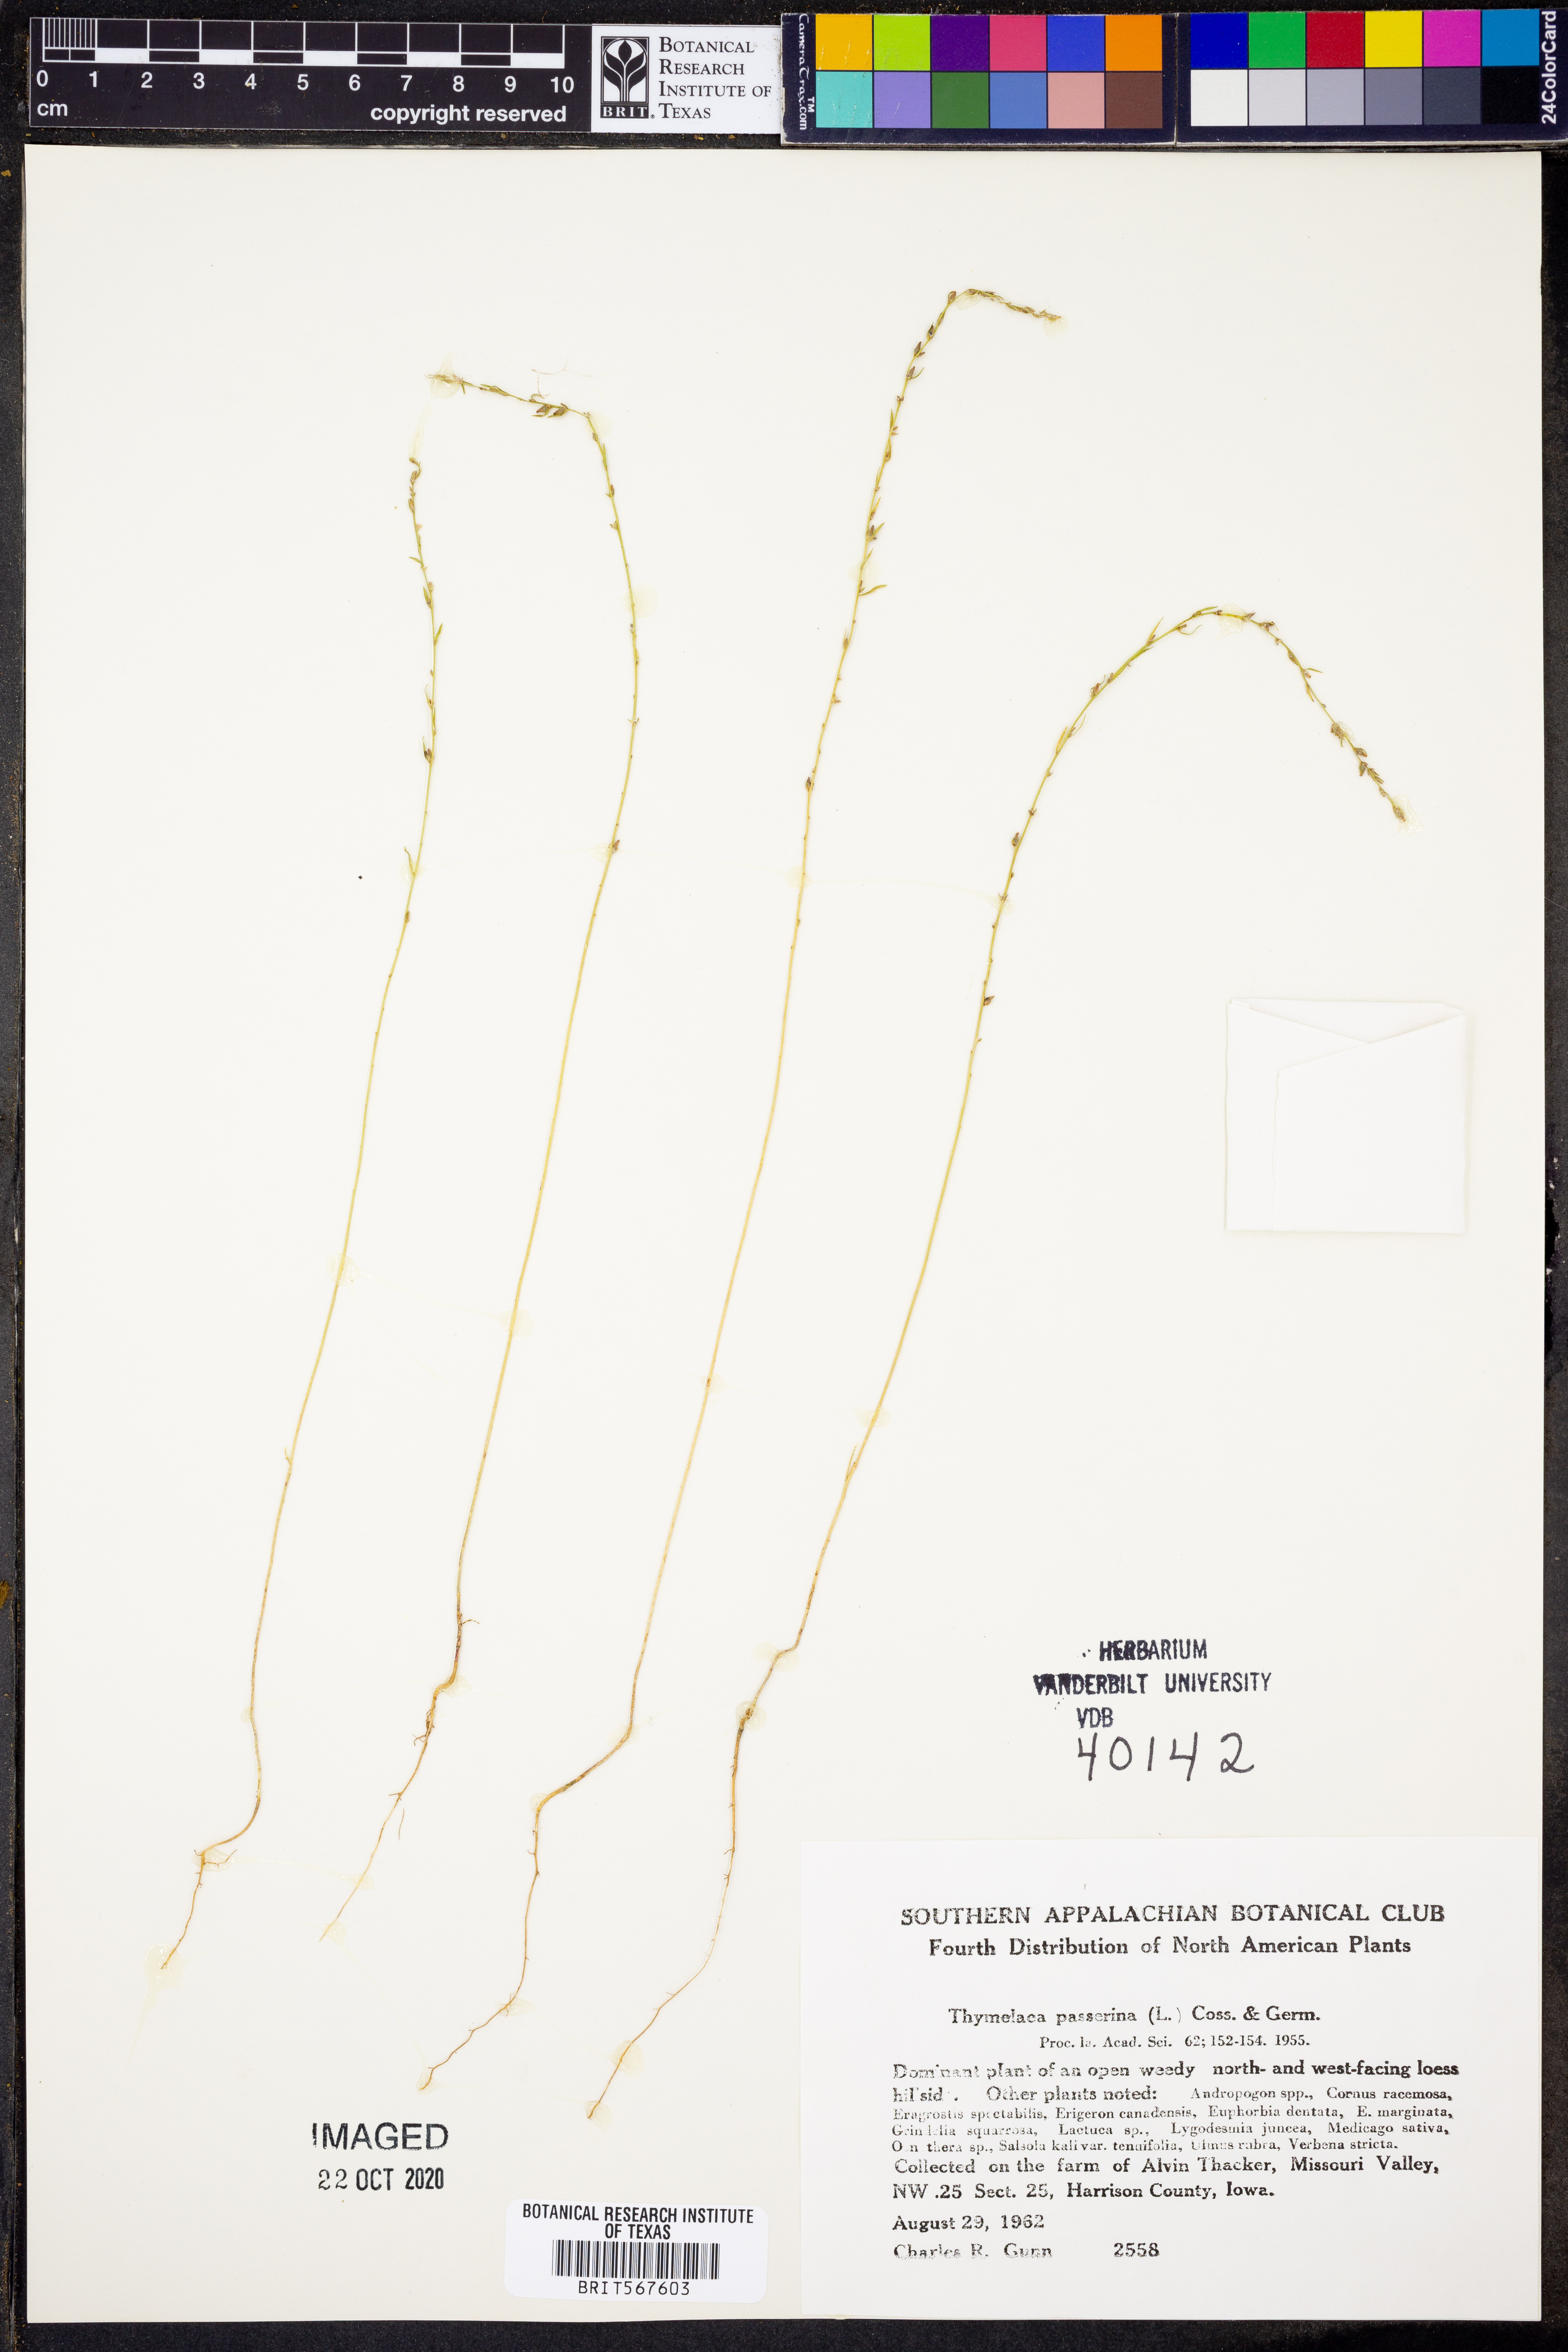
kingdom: Plantae
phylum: Tracheophyta
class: Magnoliopsida
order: Malvales
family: Thymelaeaceae
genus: Thymelaea
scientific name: Thymelaea passerina
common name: Annual thymelaea
